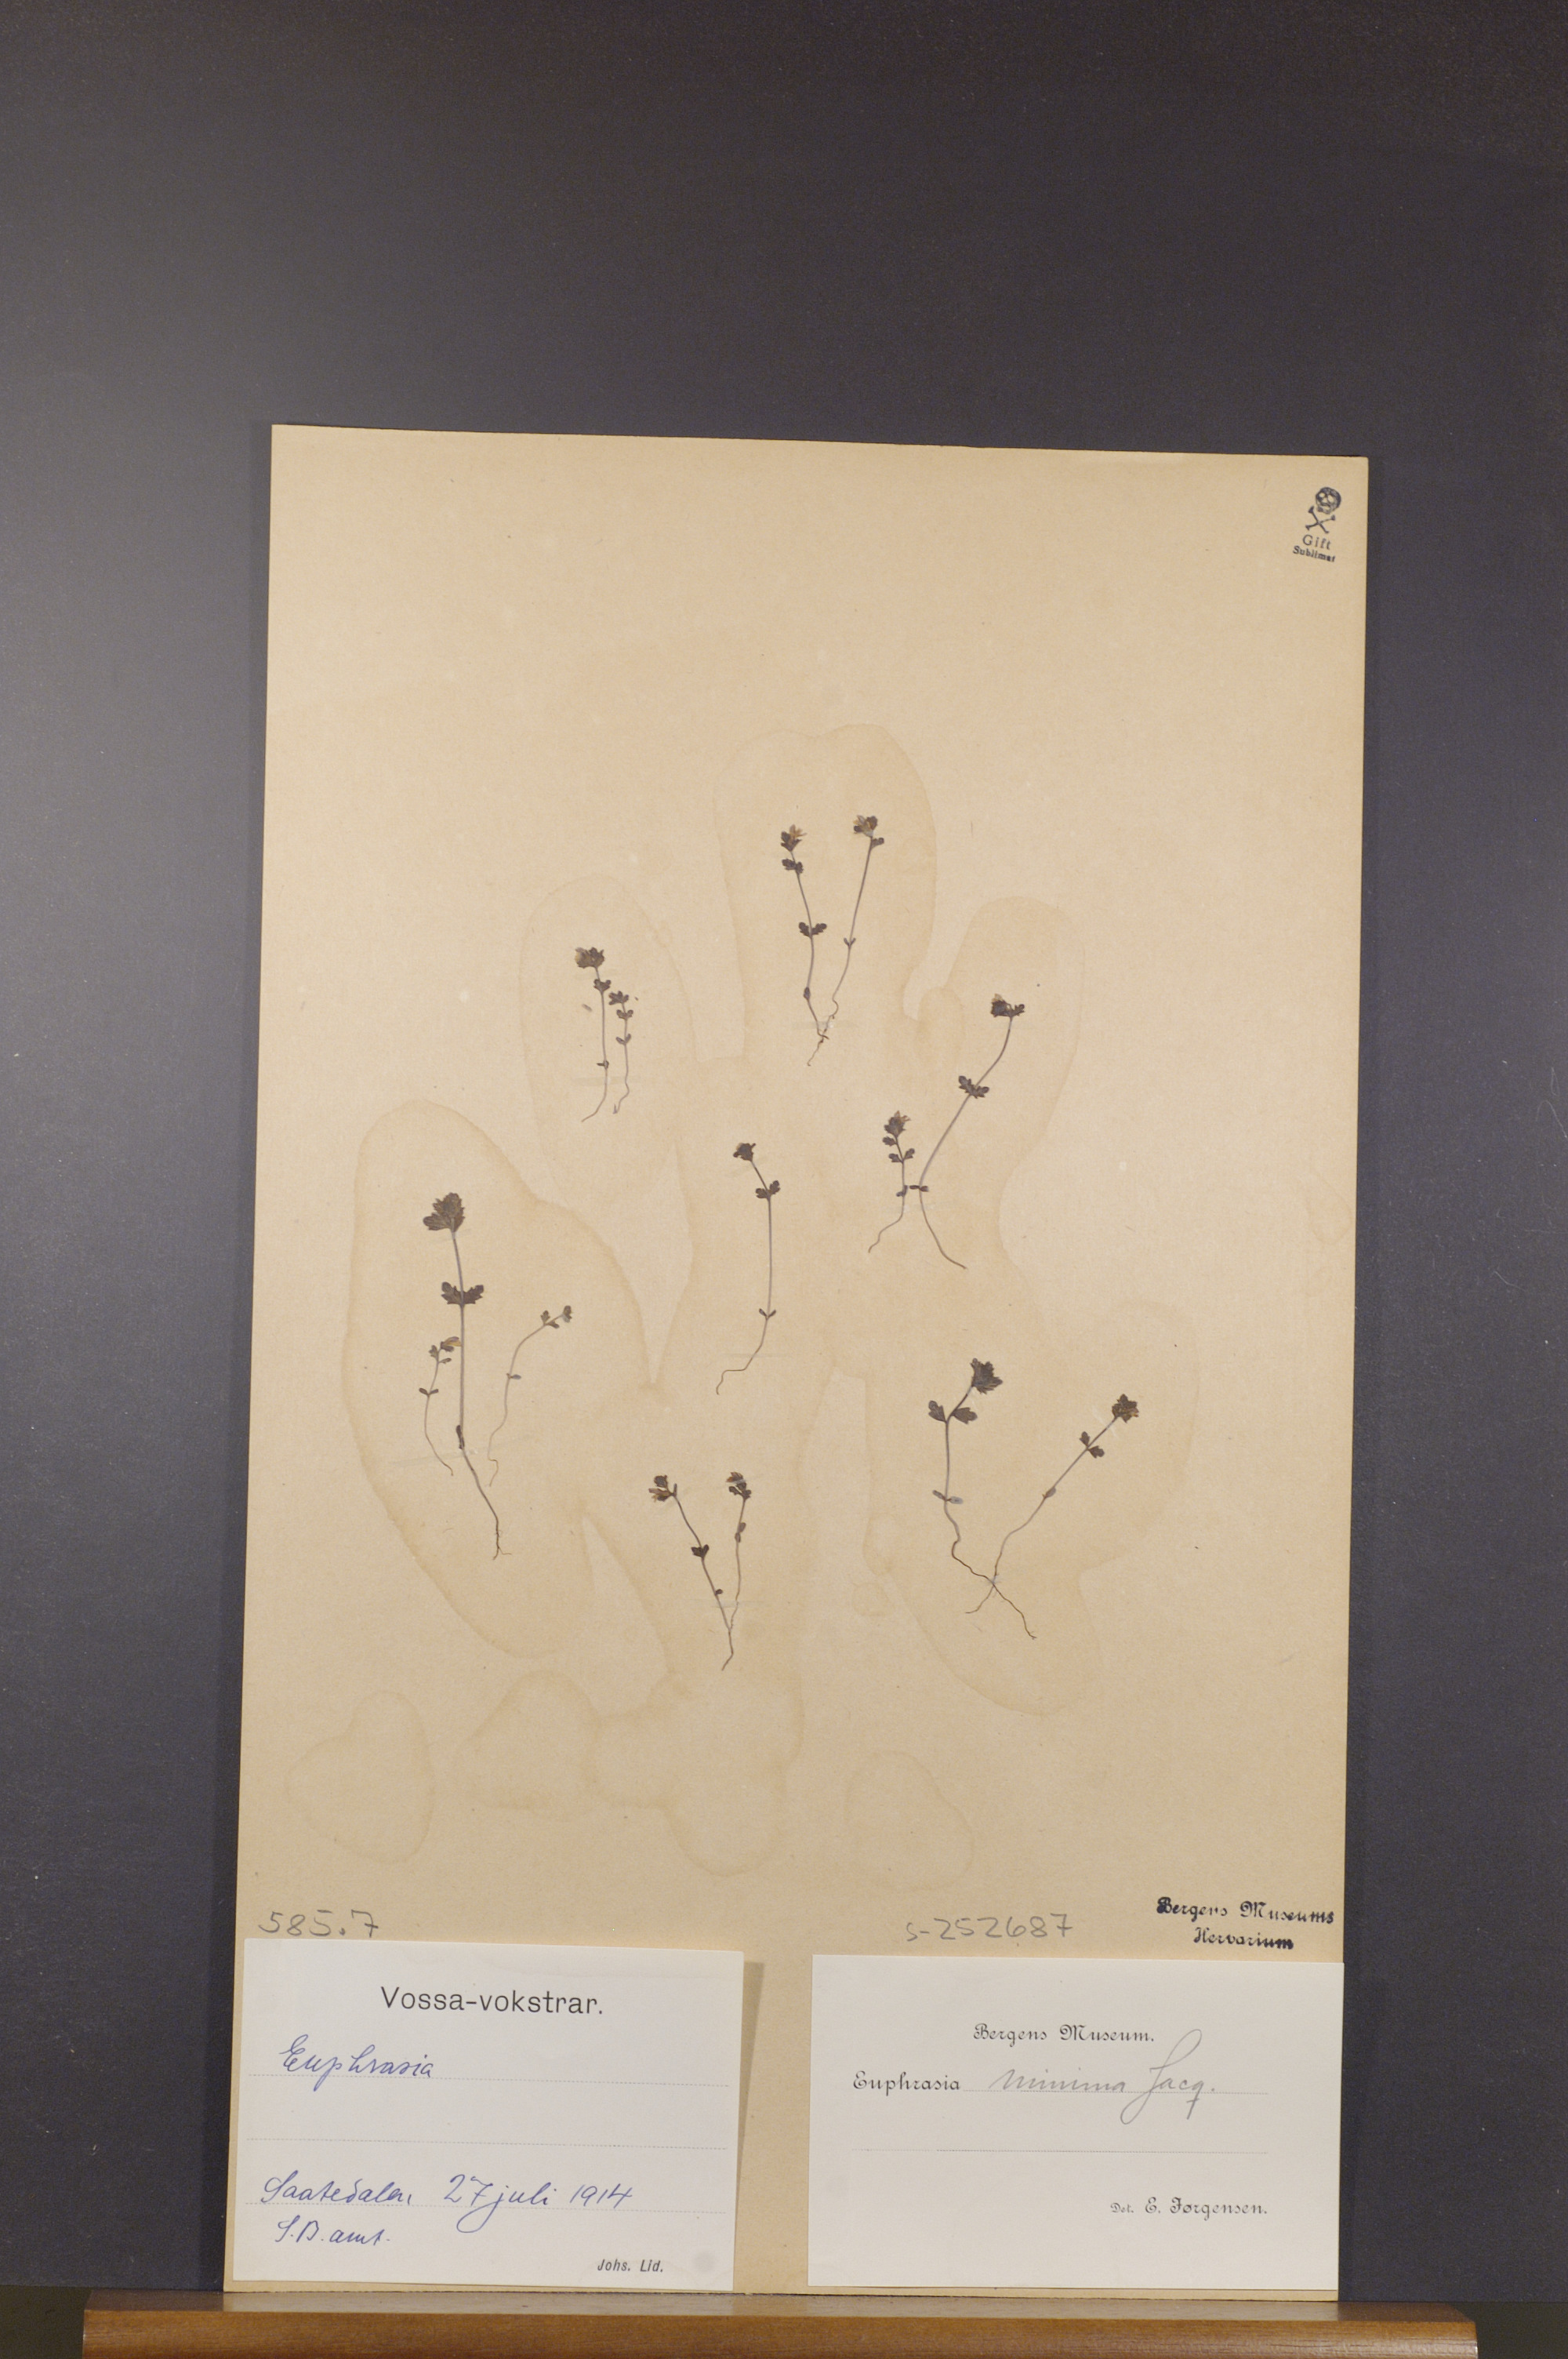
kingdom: Plantae
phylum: Tracheophyta
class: Magnoliopsida
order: Lamiales
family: Orobanchaceae
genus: Euphrasia
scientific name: Euphrasia minima
